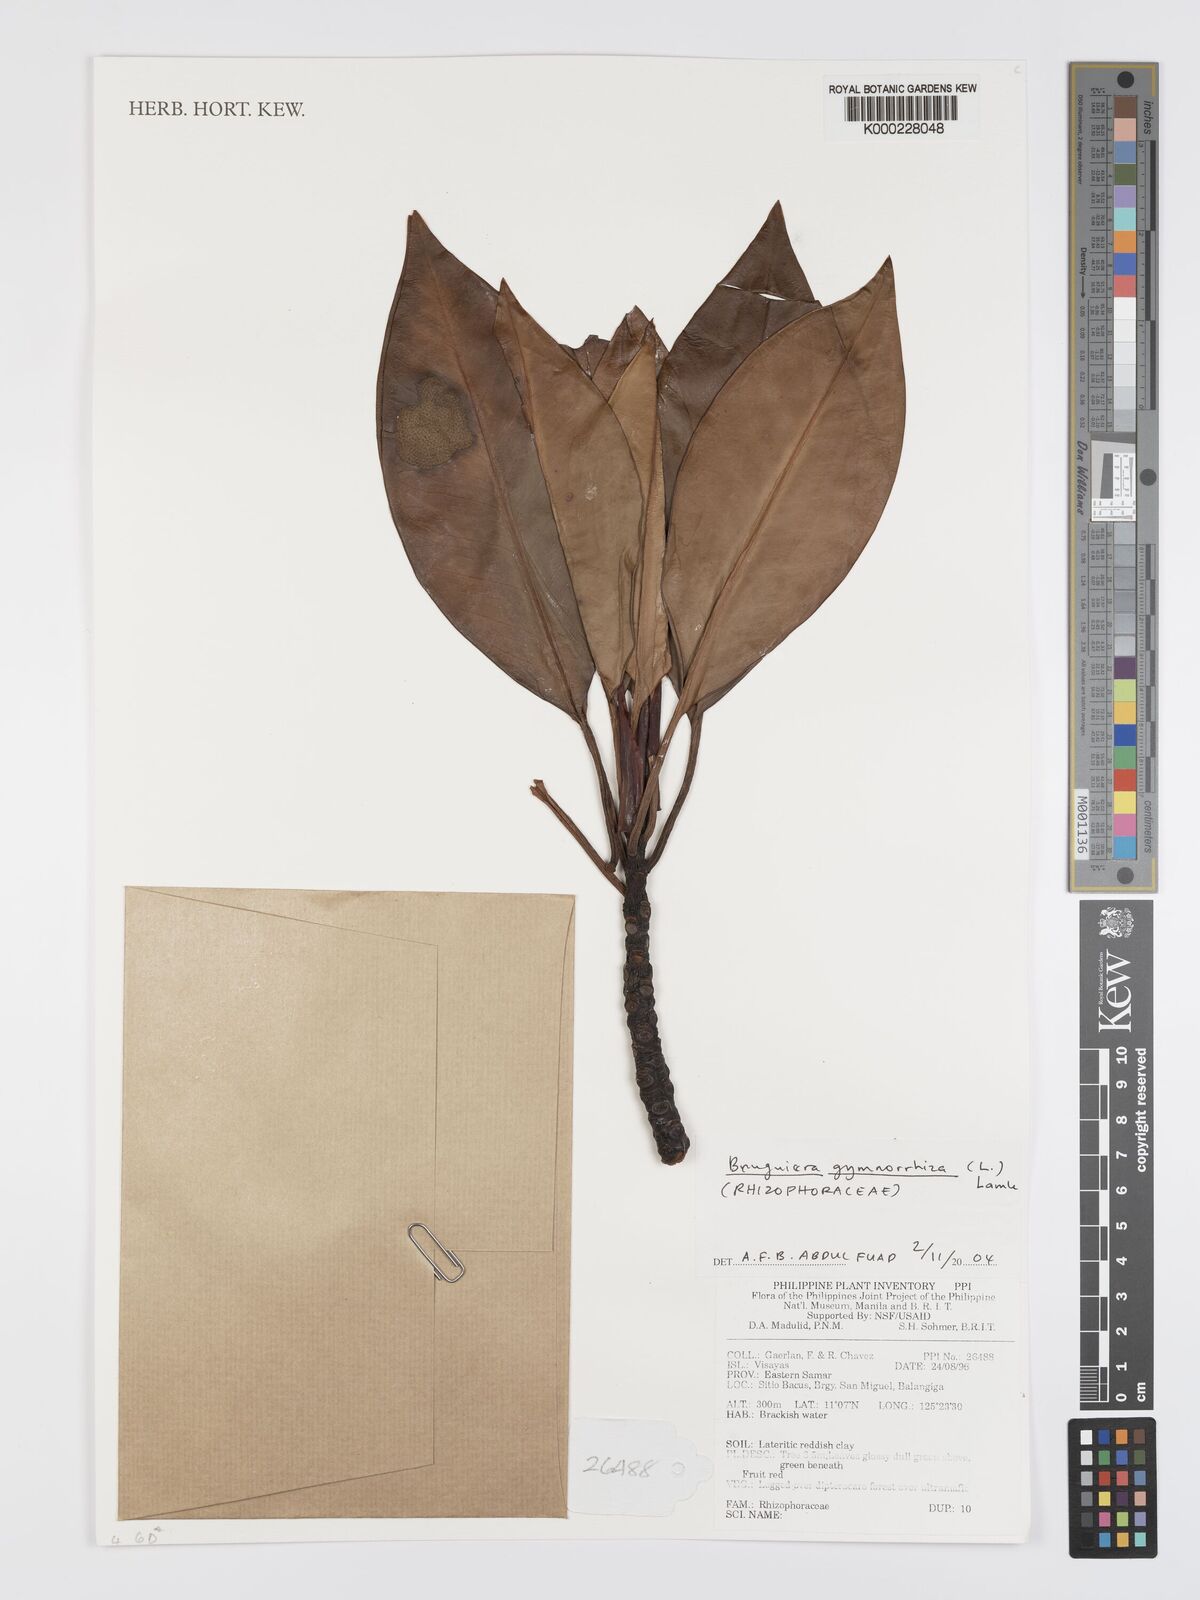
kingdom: Plantae
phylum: Tracheophyta
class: Magnoliopsida
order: Malpighiales
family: Rhizophoraceae
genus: Bruguiera
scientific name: Bruguiera gymnorhiza
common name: Oriental mangrove
